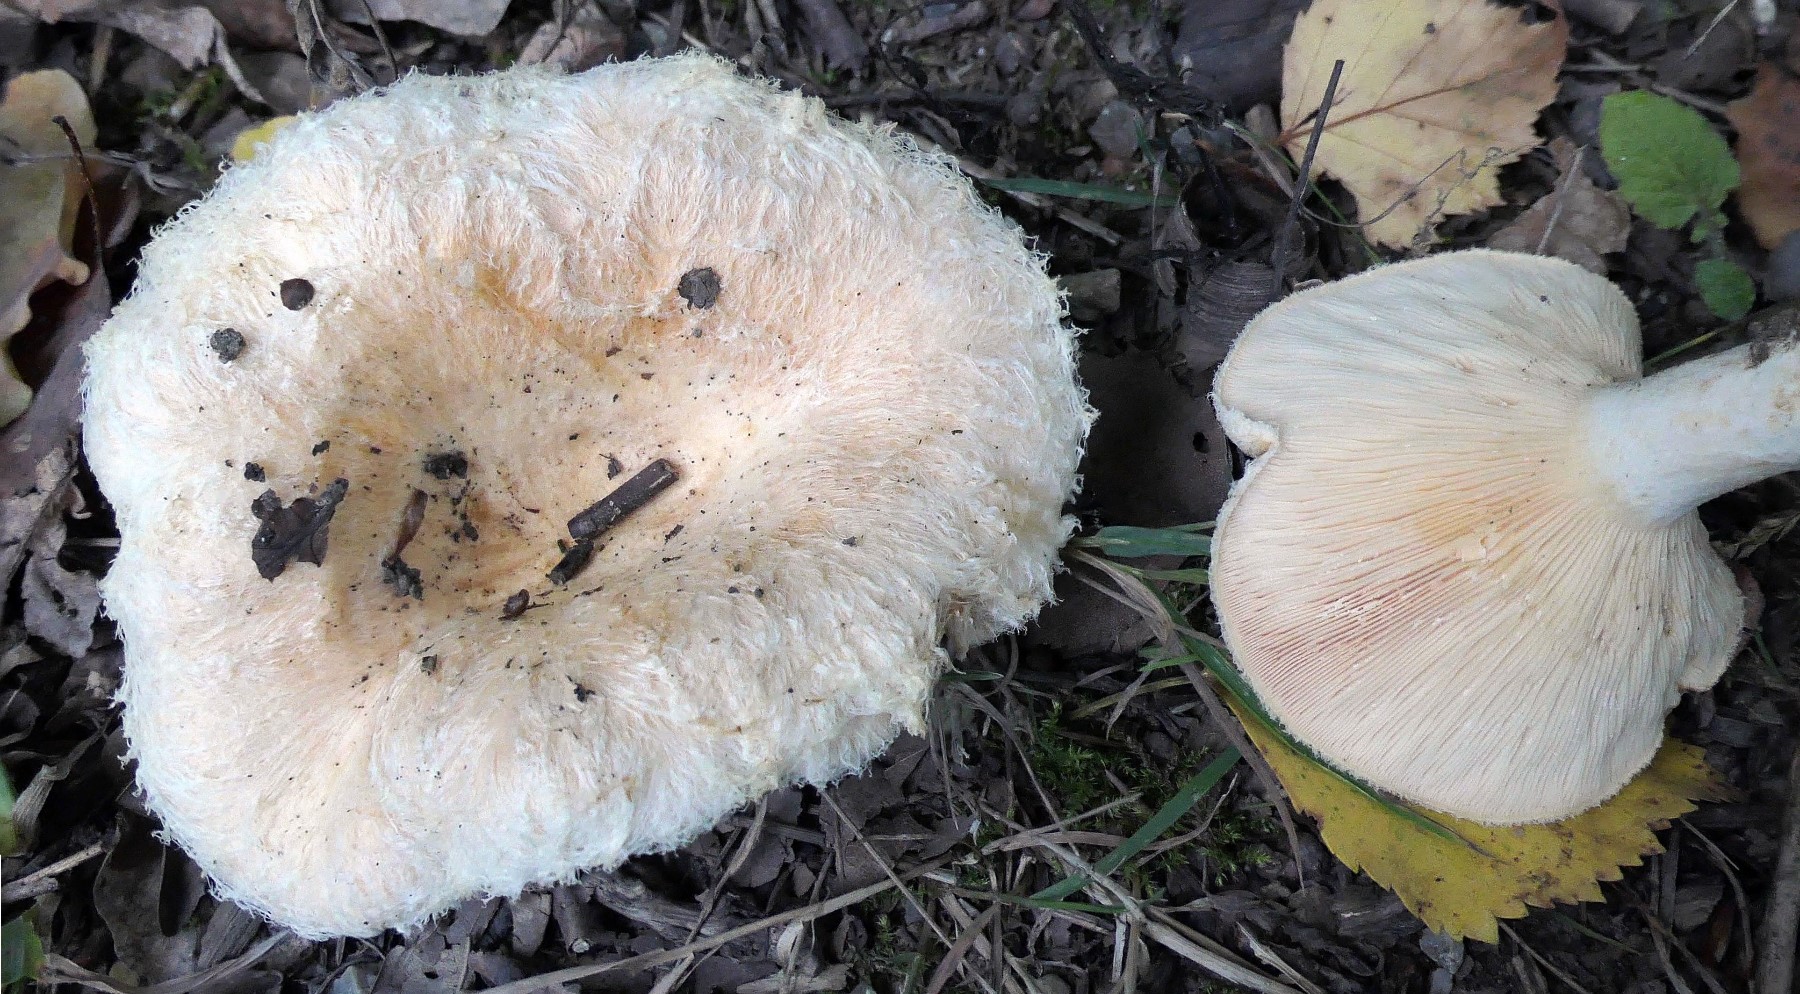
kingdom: Fungi
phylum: Basidiomycota
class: Agaricomycetes
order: Russulales
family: Russulaceae
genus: Lactarius
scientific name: Lactarius torminosus
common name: skægget mælkehat
